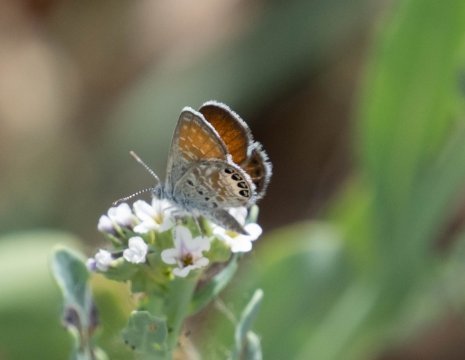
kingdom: Animalia
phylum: Arthropoda
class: Insecta
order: Lepidoptera
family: Lycaenidae
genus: Brephidium
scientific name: Brephidium exilis
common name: Western Pygmy-Blue
